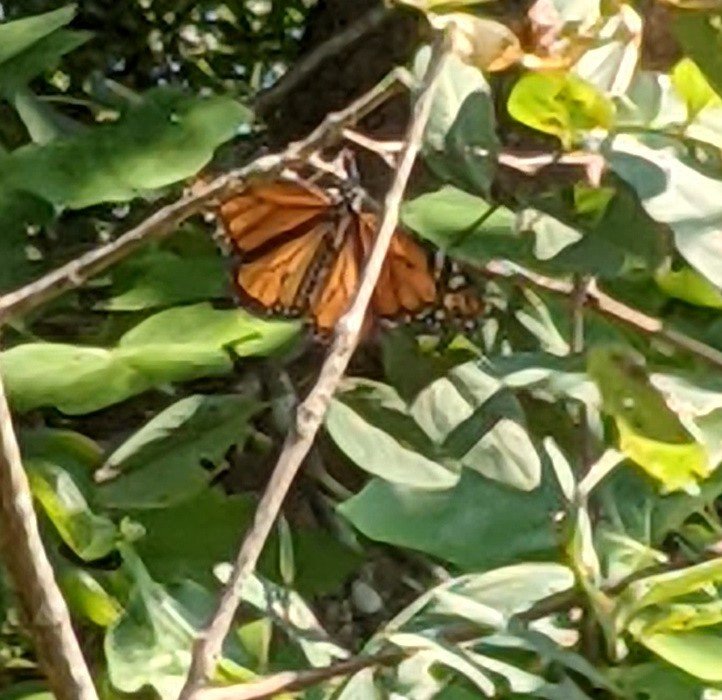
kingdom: Animalia
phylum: Arthropoda
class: Insecta
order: Lepidoptera
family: Nymphalidae
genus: Danaus
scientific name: Danaus plexippus
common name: Monarch
